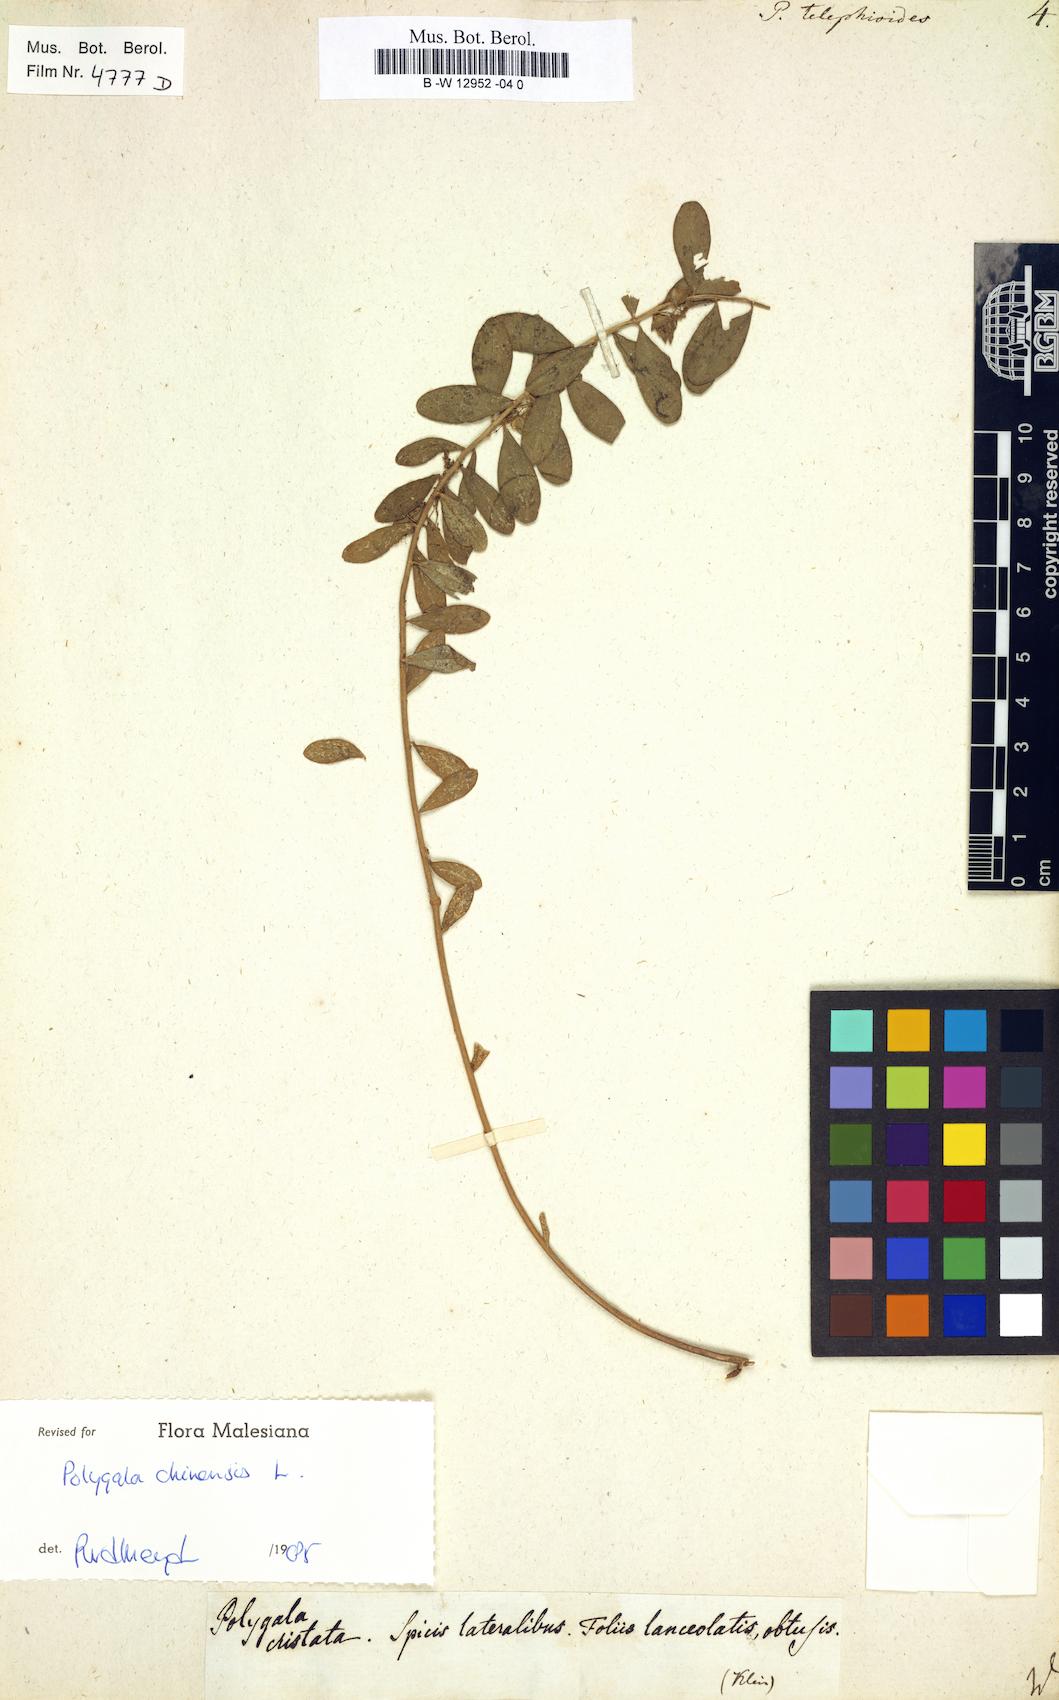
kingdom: Plantae
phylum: Tracheophyta
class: Magnoliopsida
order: Fabales
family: Polygalaceae
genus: Polygala
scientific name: Polygala telephioides
